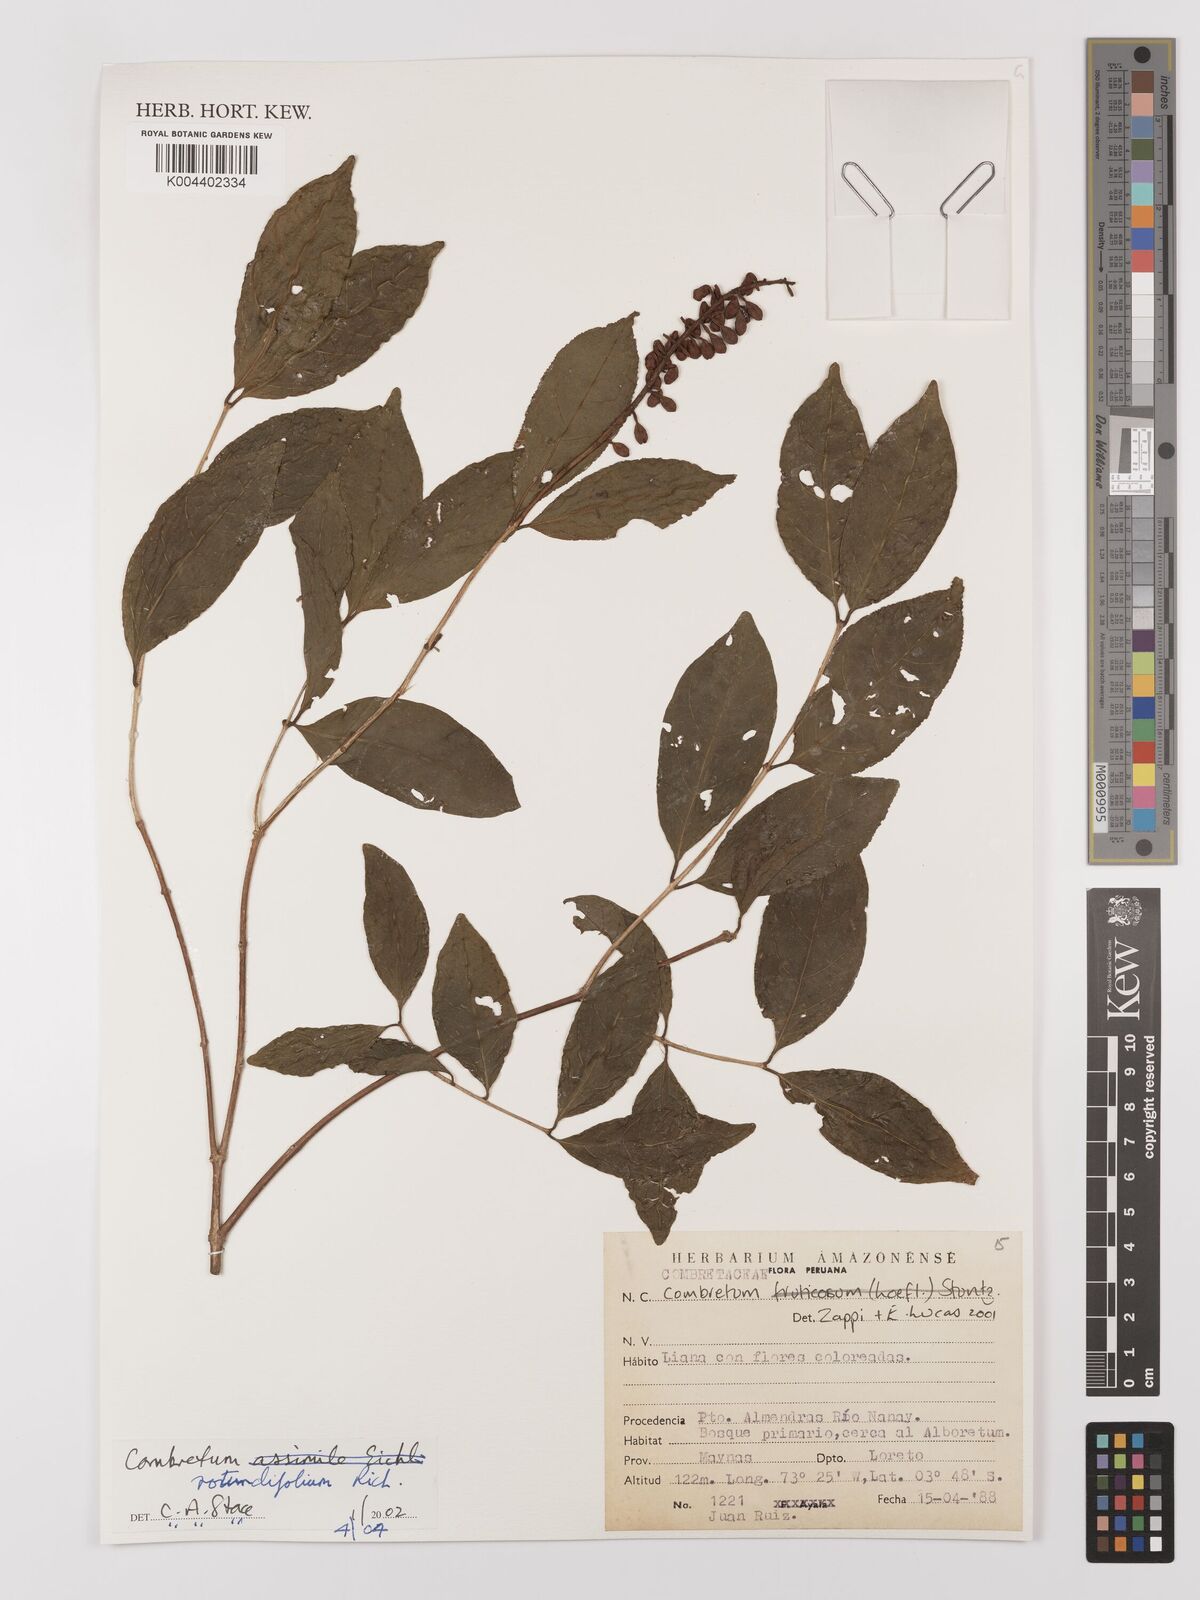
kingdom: Plantae
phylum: Tracheophyta
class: Magnoliopsida
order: Myrtales
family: Combretaceae
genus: Combretum
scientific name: Combretum
